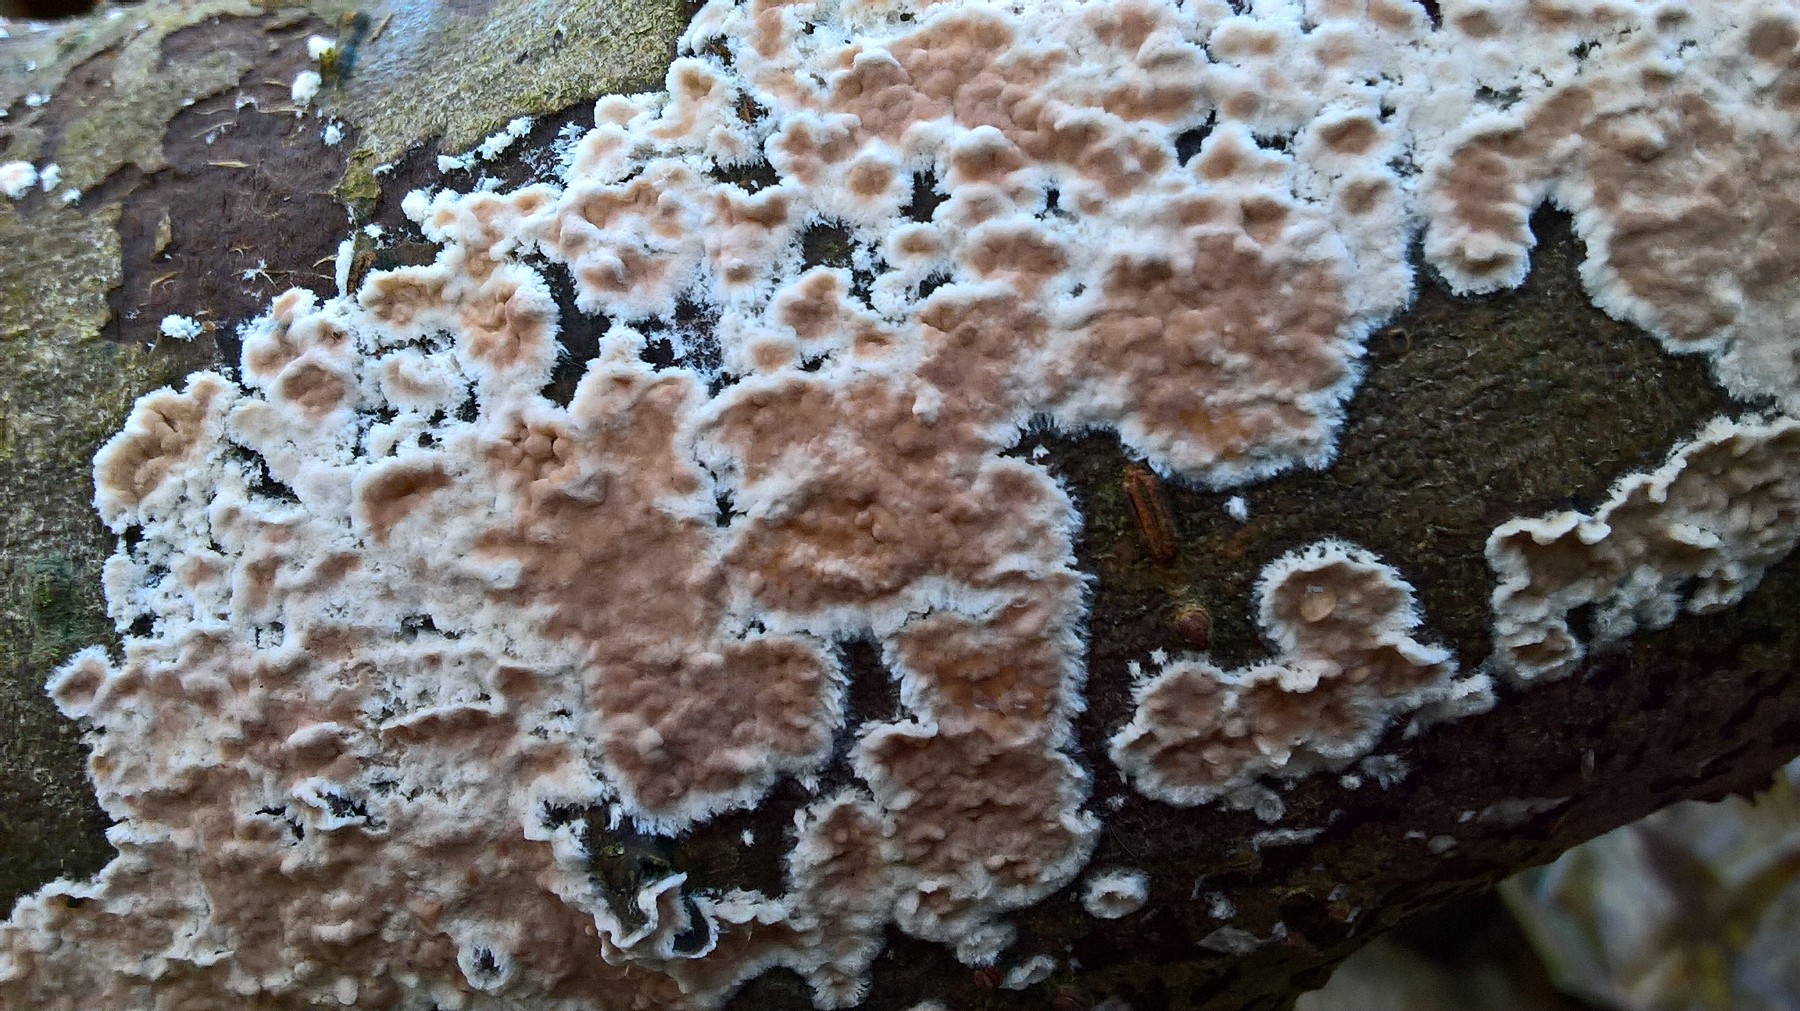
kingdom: Fungi
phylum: Basidiomycota
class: Agaricomycetes
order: Agaricales
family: Physalacriaceae
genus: Cylindrobasidium
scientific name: Cylindrobasidium evolvens
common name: sprækkehinde
